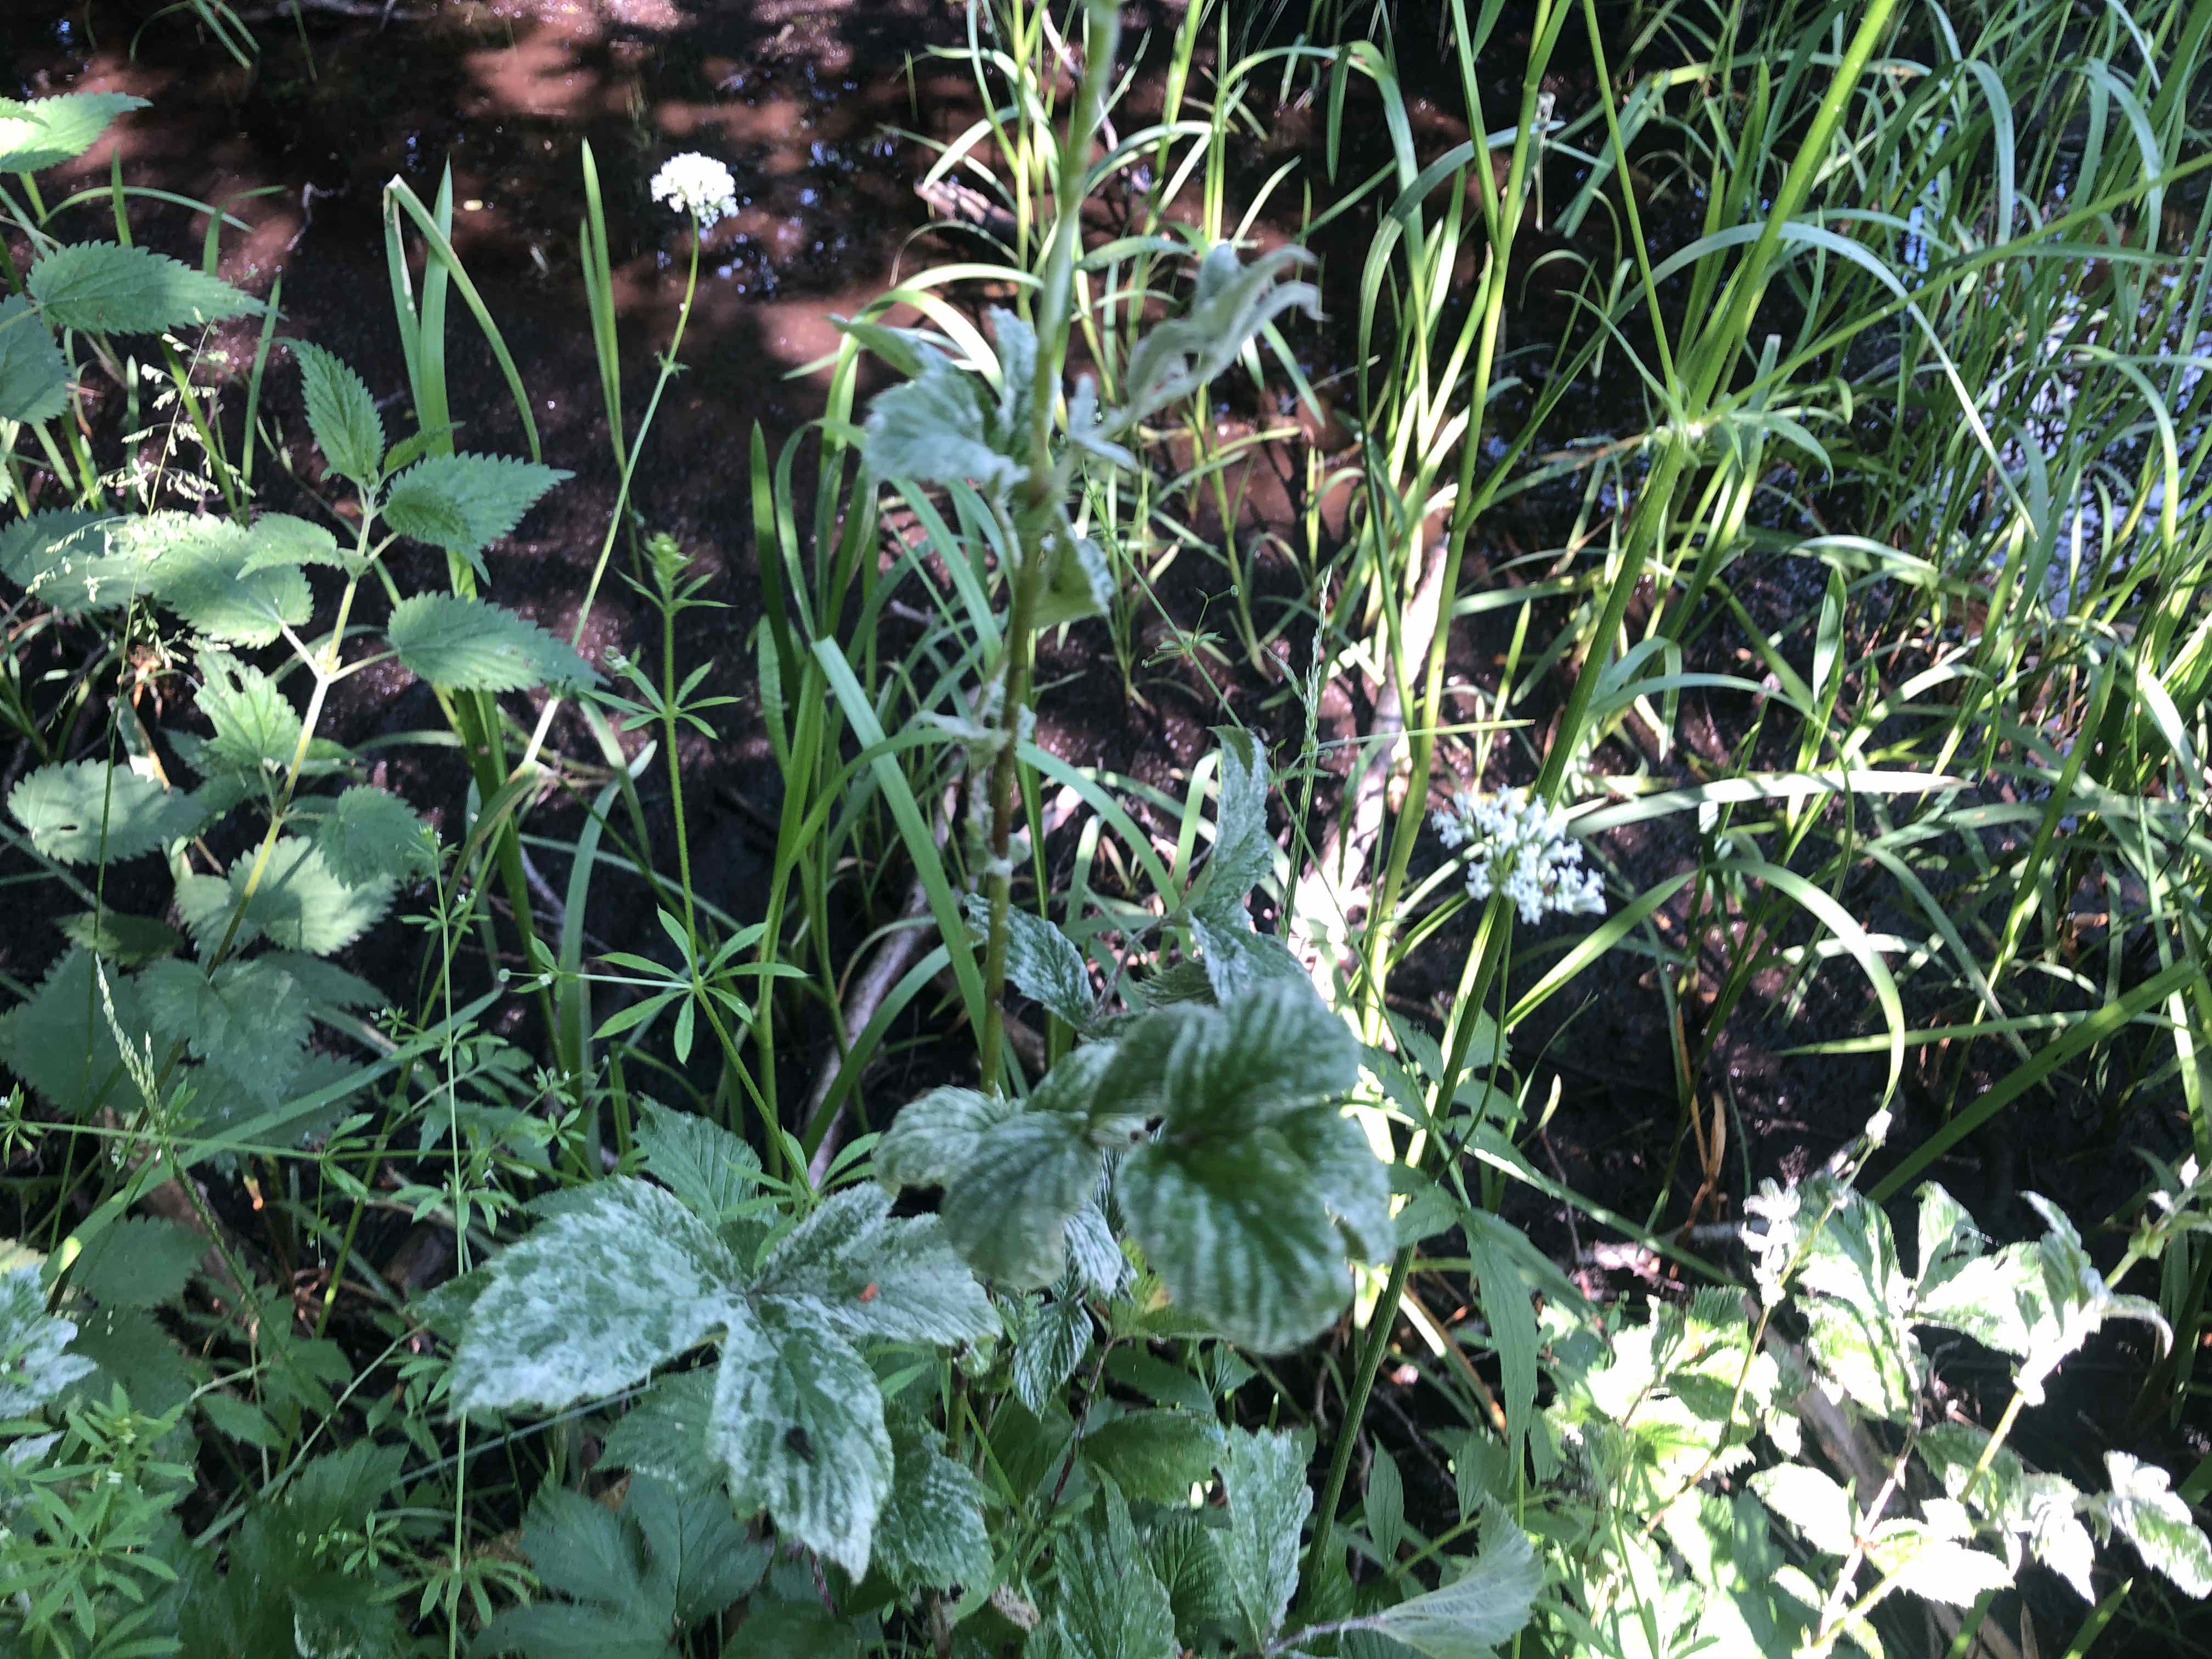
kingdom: Fungi
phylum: Ascomycota
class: Leotiomycetes
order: Helotiales
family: Erysiphaceae
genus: Podosphaera
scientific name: Podosphaera filipendulae
